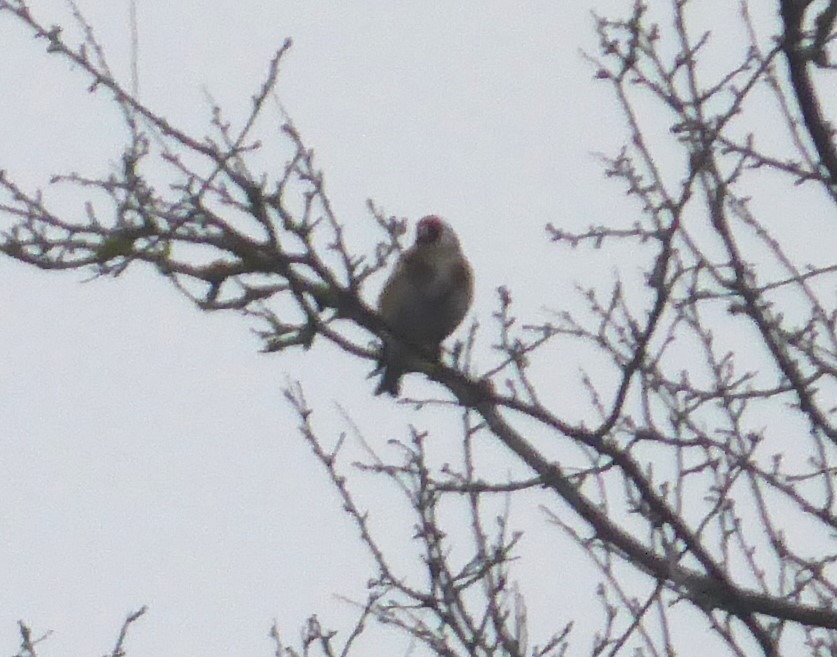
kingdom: Animalia
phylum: Chordata
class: Aves
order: Passeriformes
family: Fringillidae
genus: Carduelis
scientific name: Carduelis carduelis
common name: Stillits
